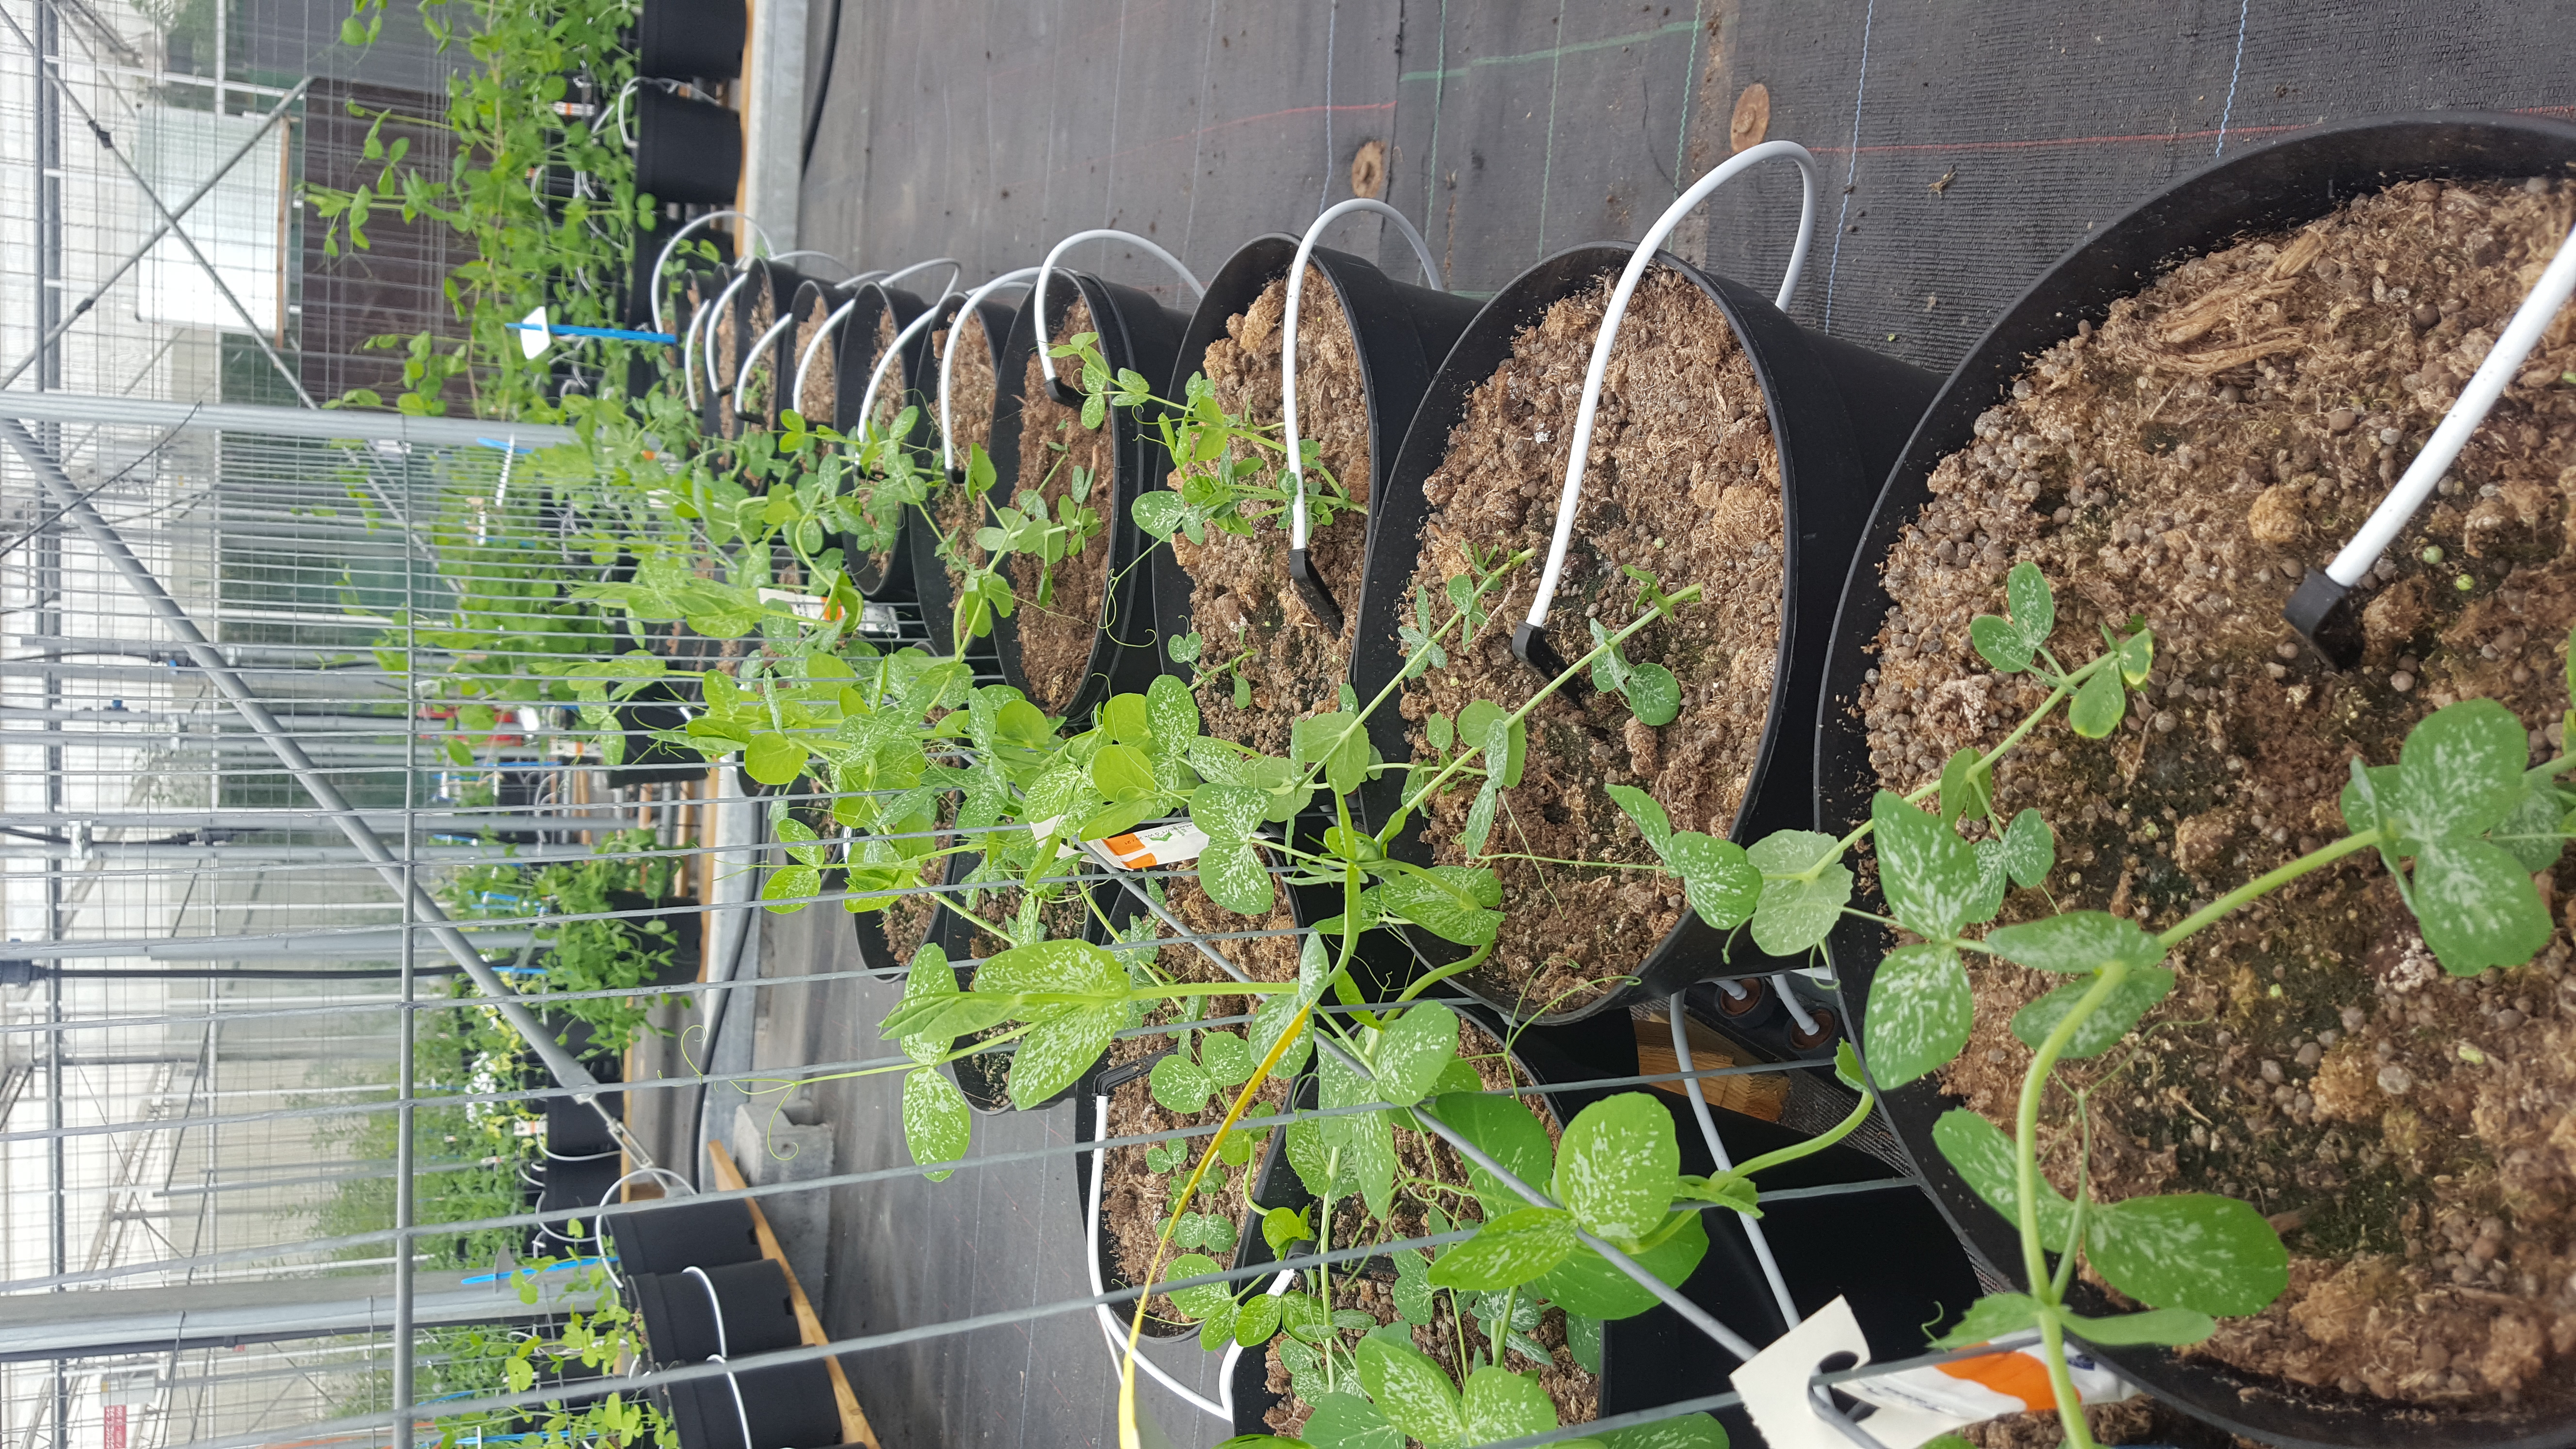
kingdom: Plantae
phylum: Tracheophyta
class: Magnoliopsida
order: Fabales
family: Fabaceae
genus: Lathyrus
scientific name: Lathyrus oleraceus
